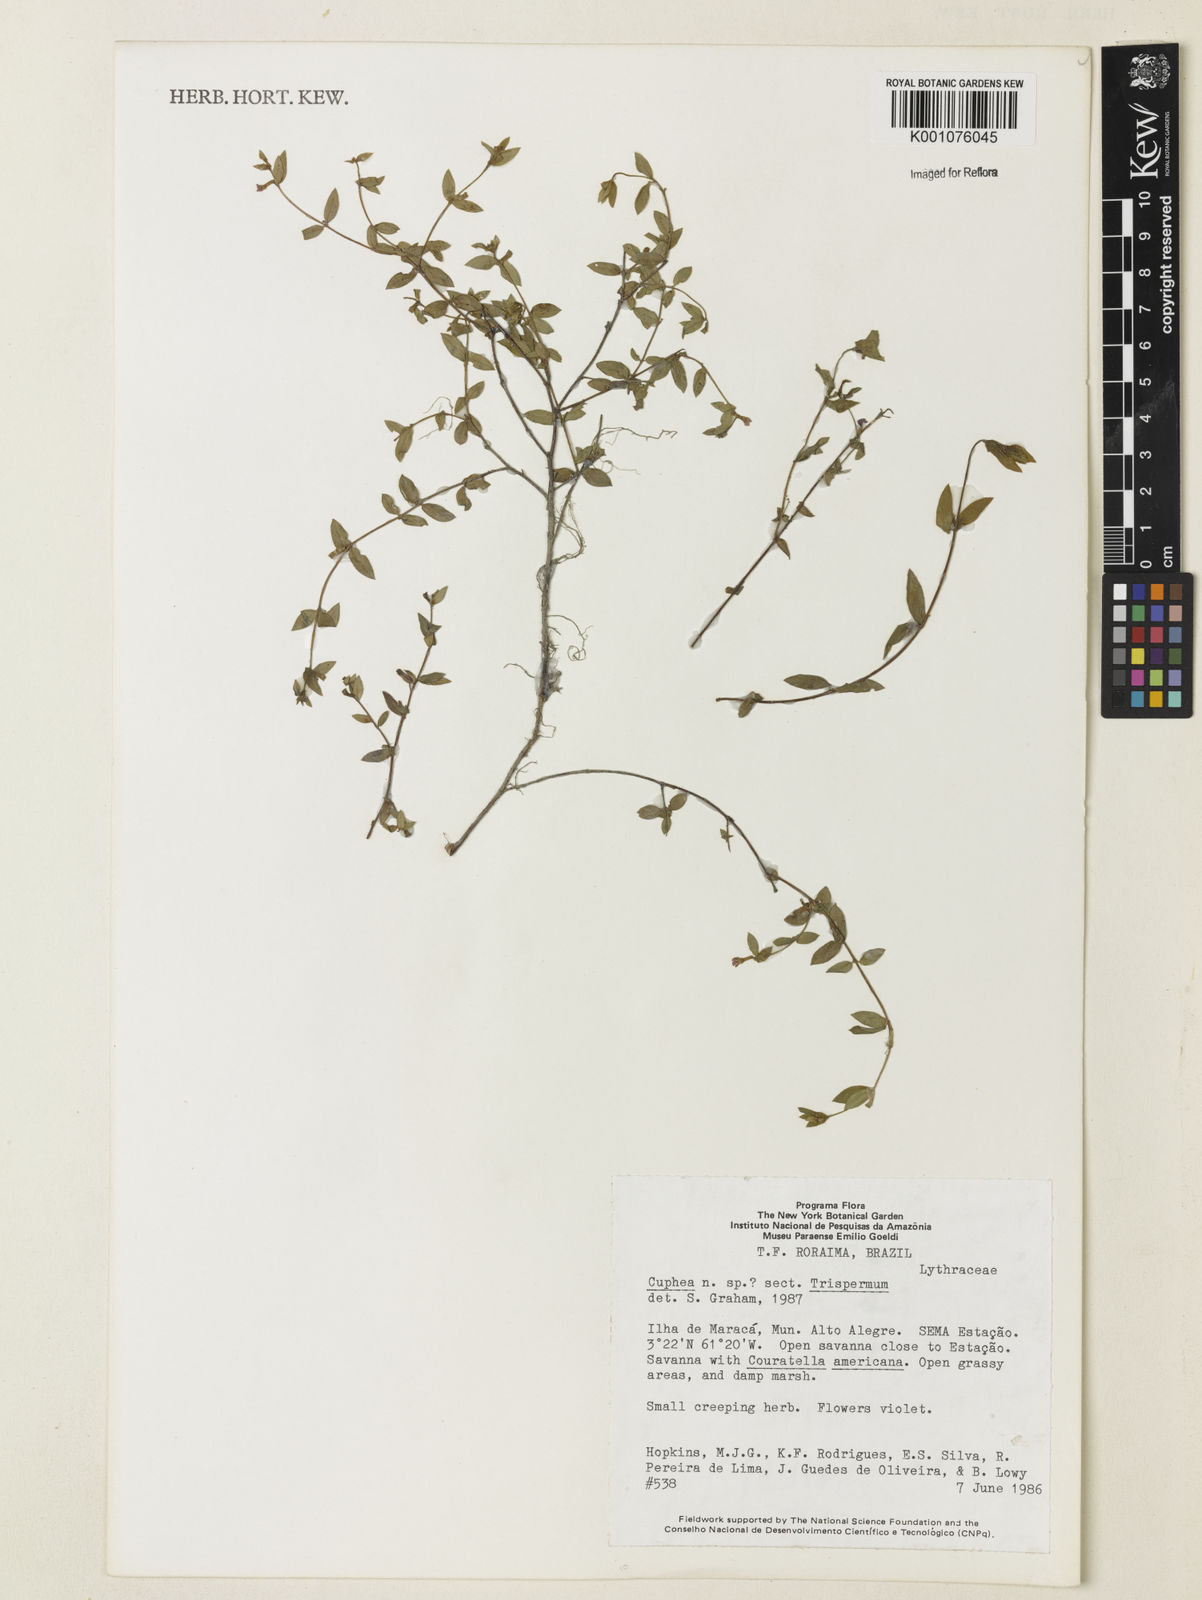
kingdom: Plantae
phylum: Tracheophyta
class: Magnoliopsida
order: Myrtales
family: Lythraceae
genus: Cuphea
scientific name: Cuphea
